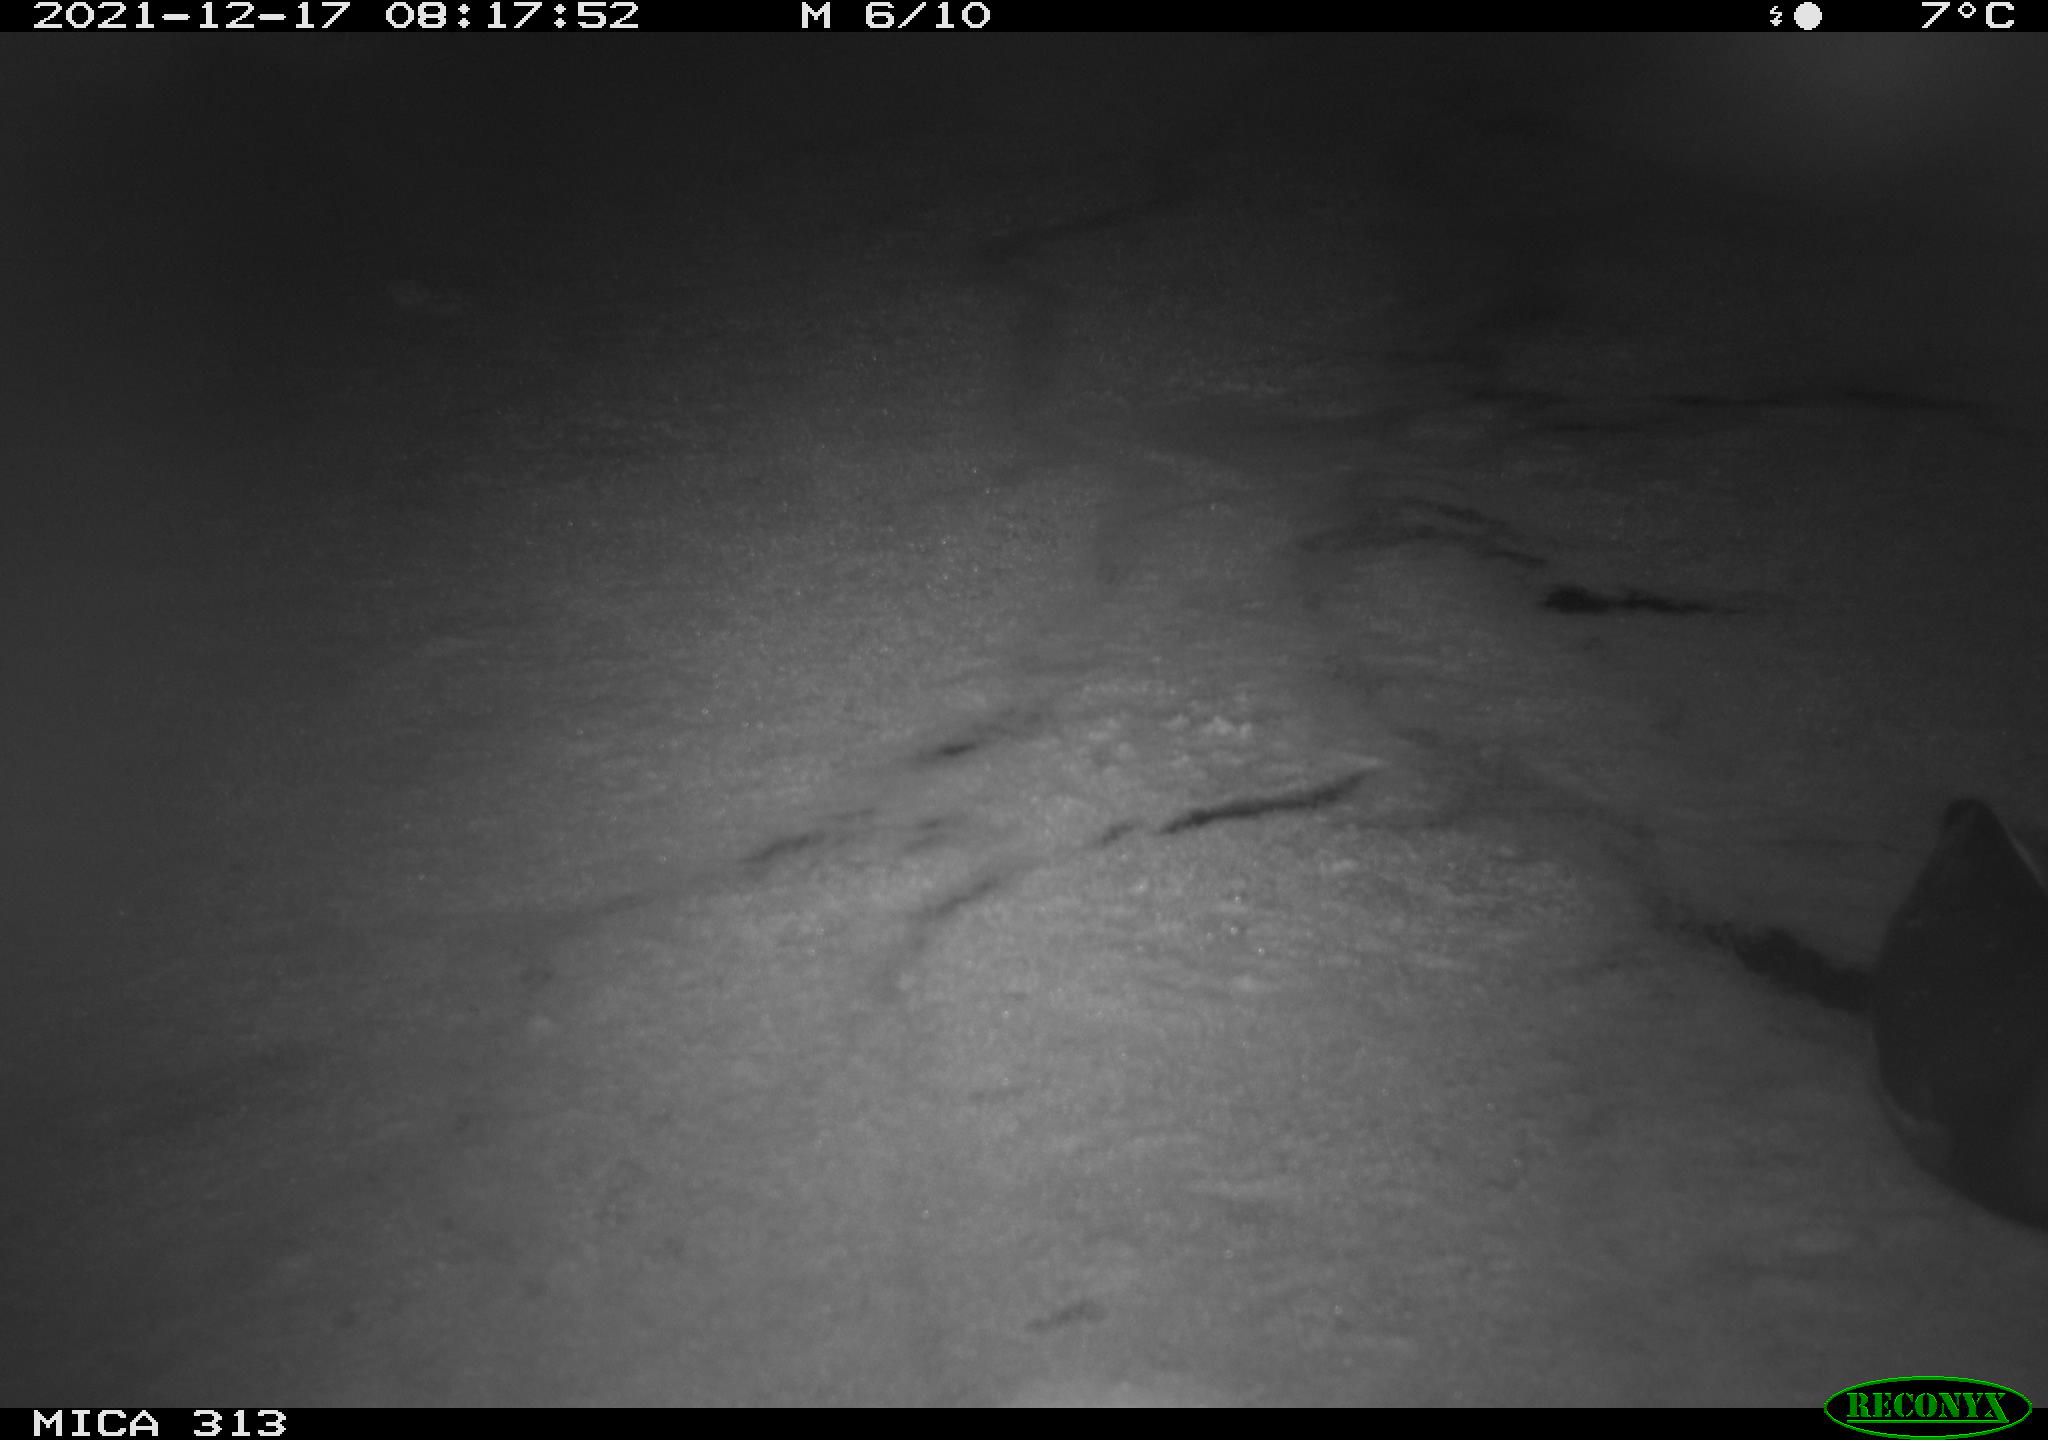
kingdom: Animalia
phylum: Chordata
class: Aves
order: Gruiformes
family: Rallidae
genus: Gallinula
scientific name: Gallinula chloropus
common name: Common moorhen
